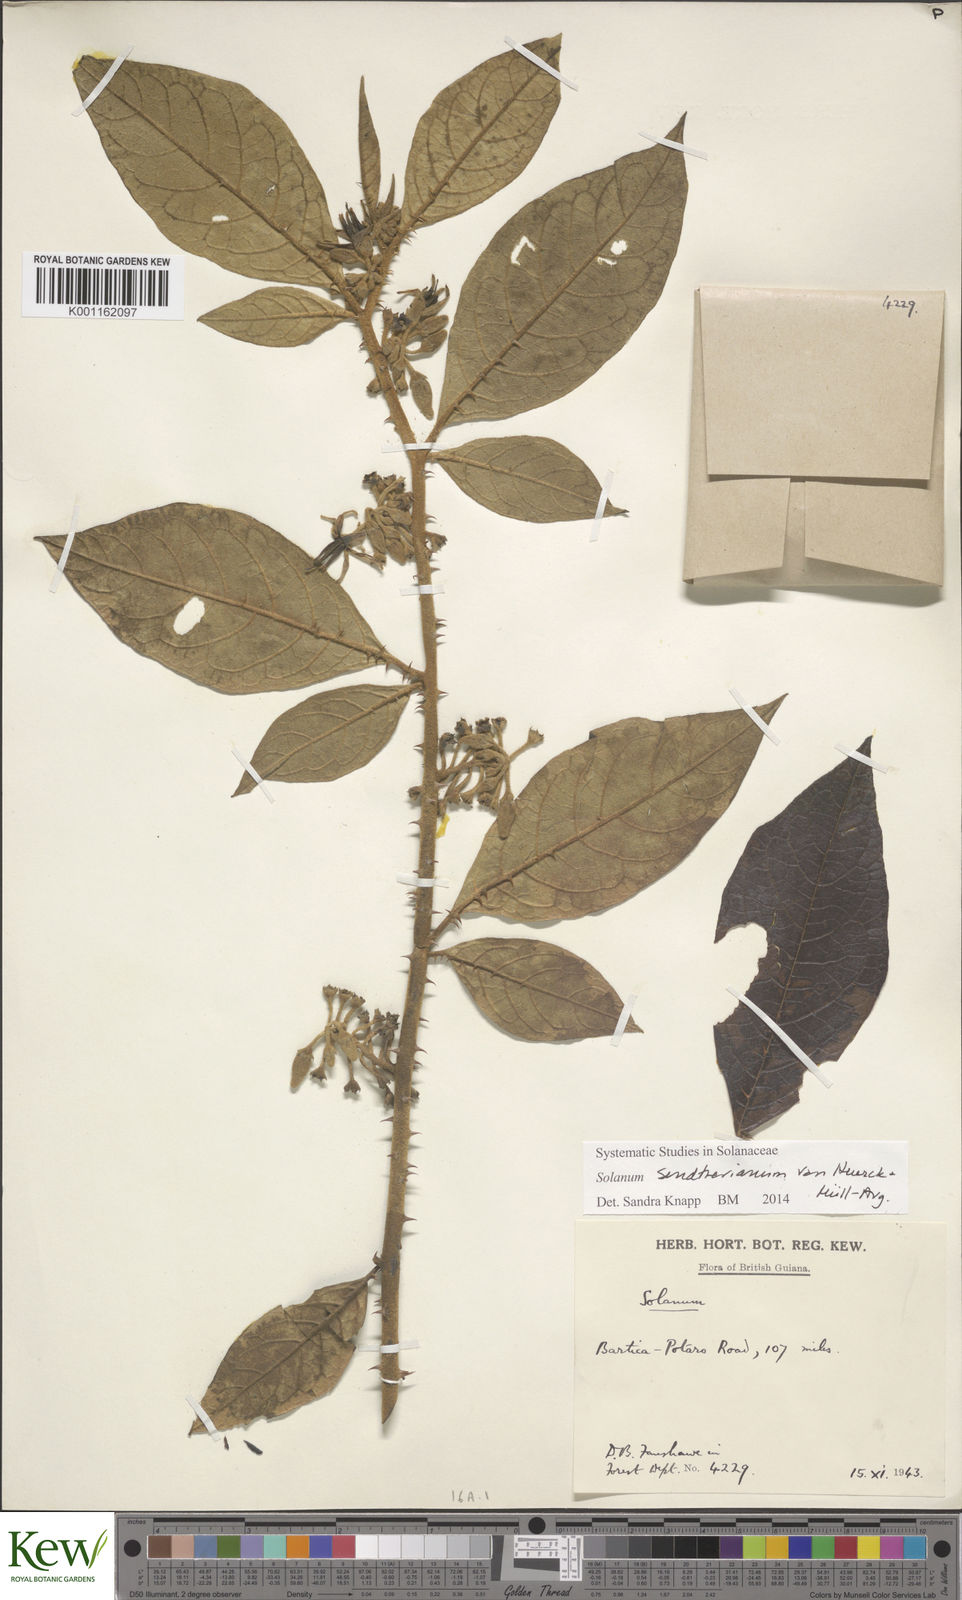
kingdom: Plantae
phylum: Tracheophyta
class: Magnoliopsida
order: Solanales
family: Solanaceae
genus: Solanum
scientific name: Solanum
